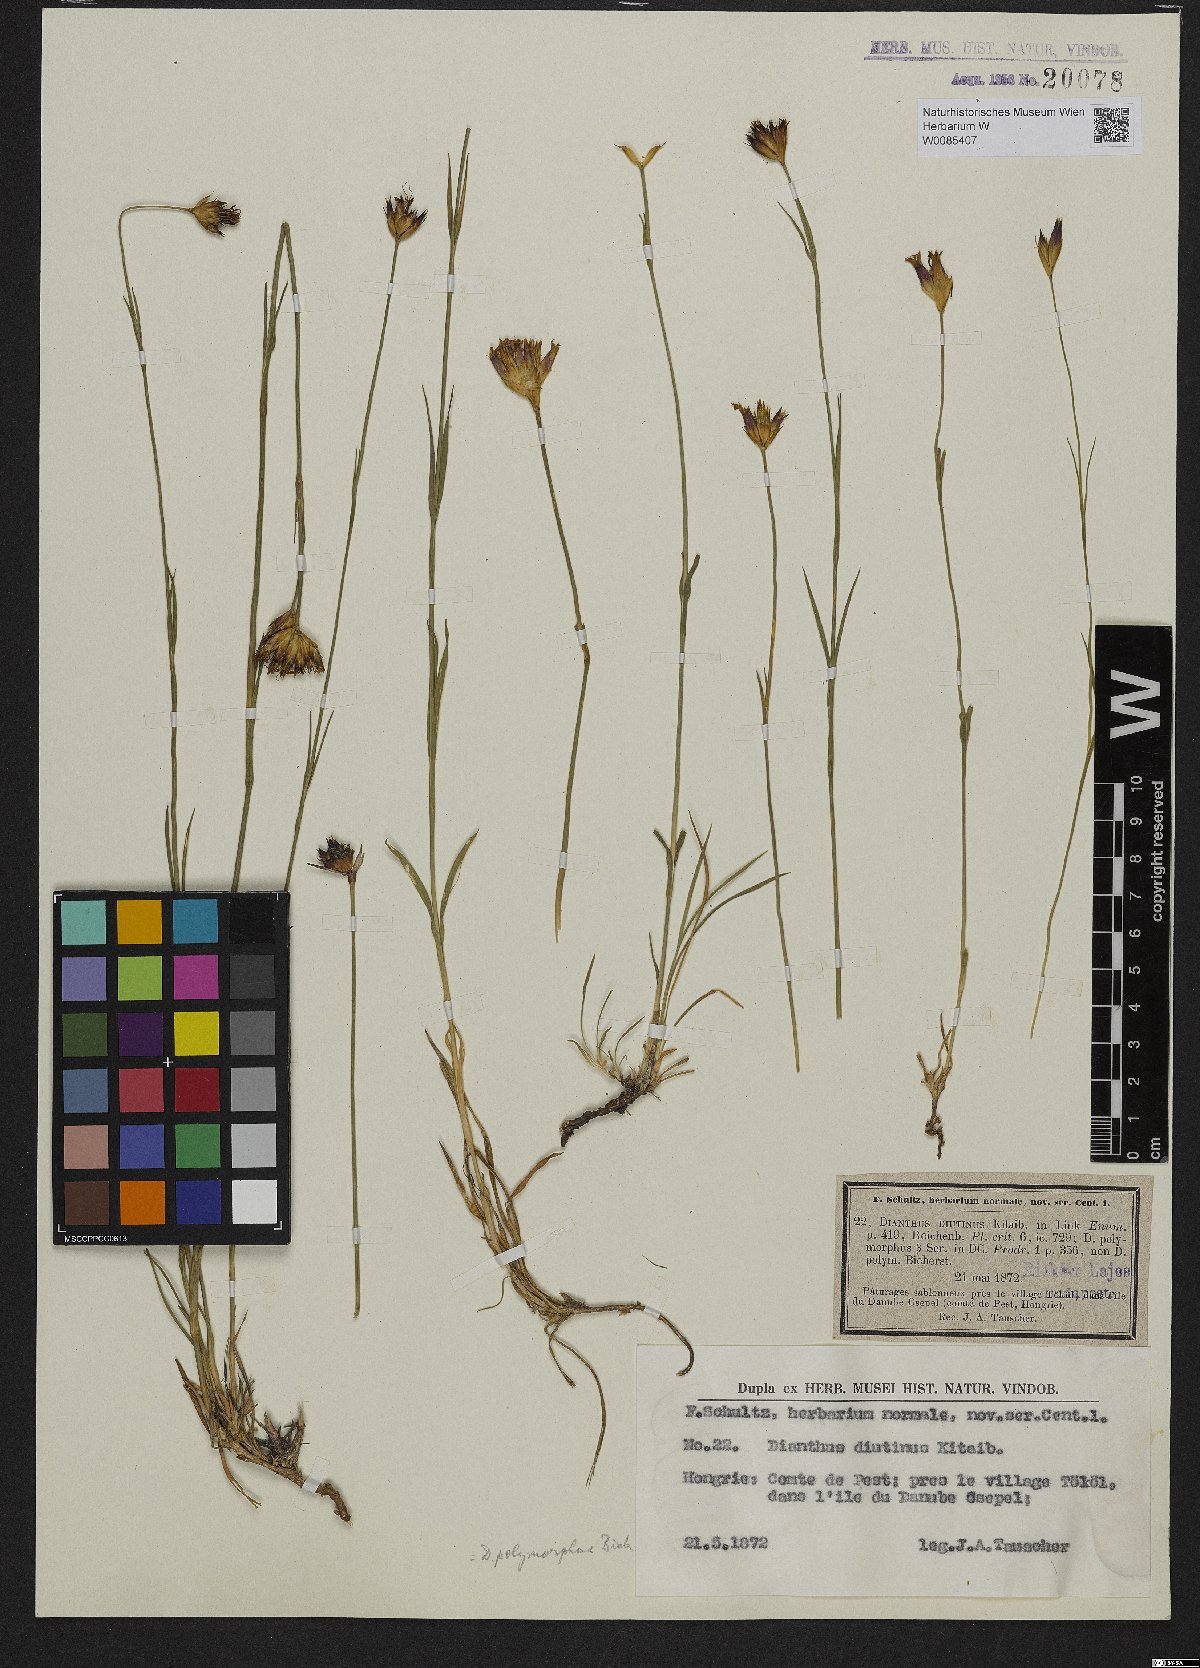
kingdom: Plantae
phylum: Tracheophyta
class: Magnoliopsida
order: Caryophyllales
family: Caryophyllaceae
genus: Dianthus
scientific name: Dianthus polymorphus
